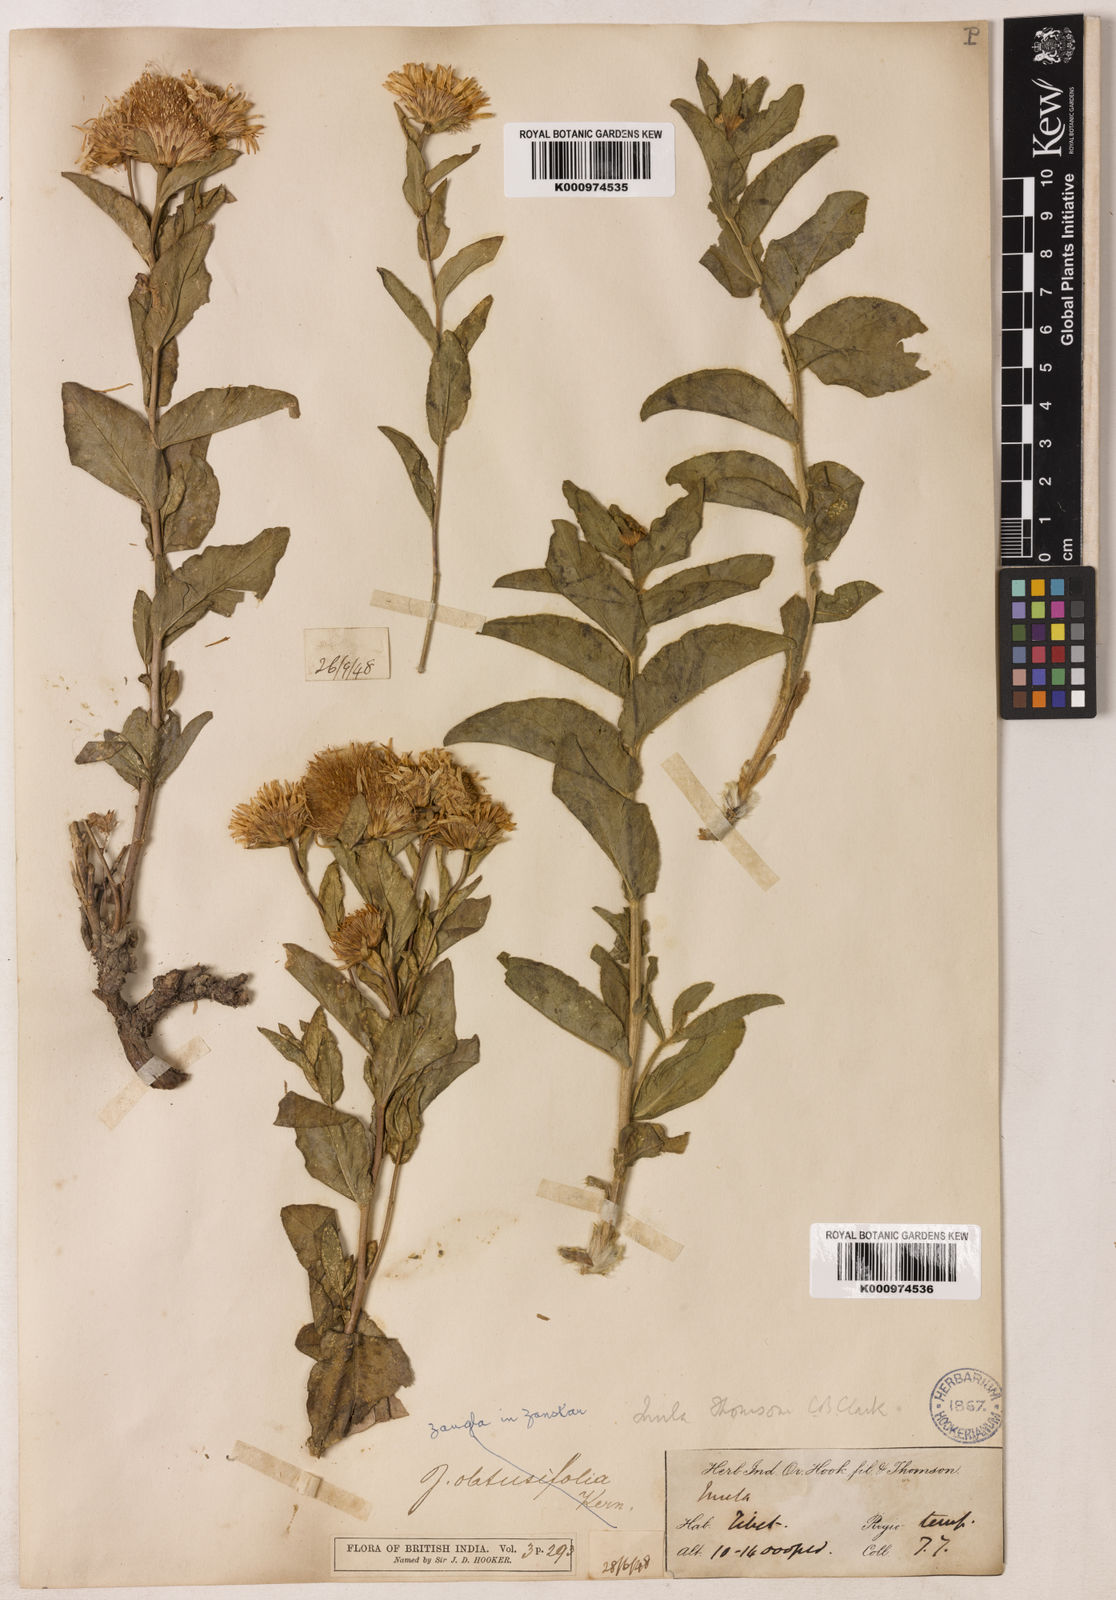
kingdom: Plantae
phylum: Tracheophyta
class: Magnoliopsida
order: Asterales
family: Asteraceae
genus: Inula
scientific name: Inula obtusifolia
